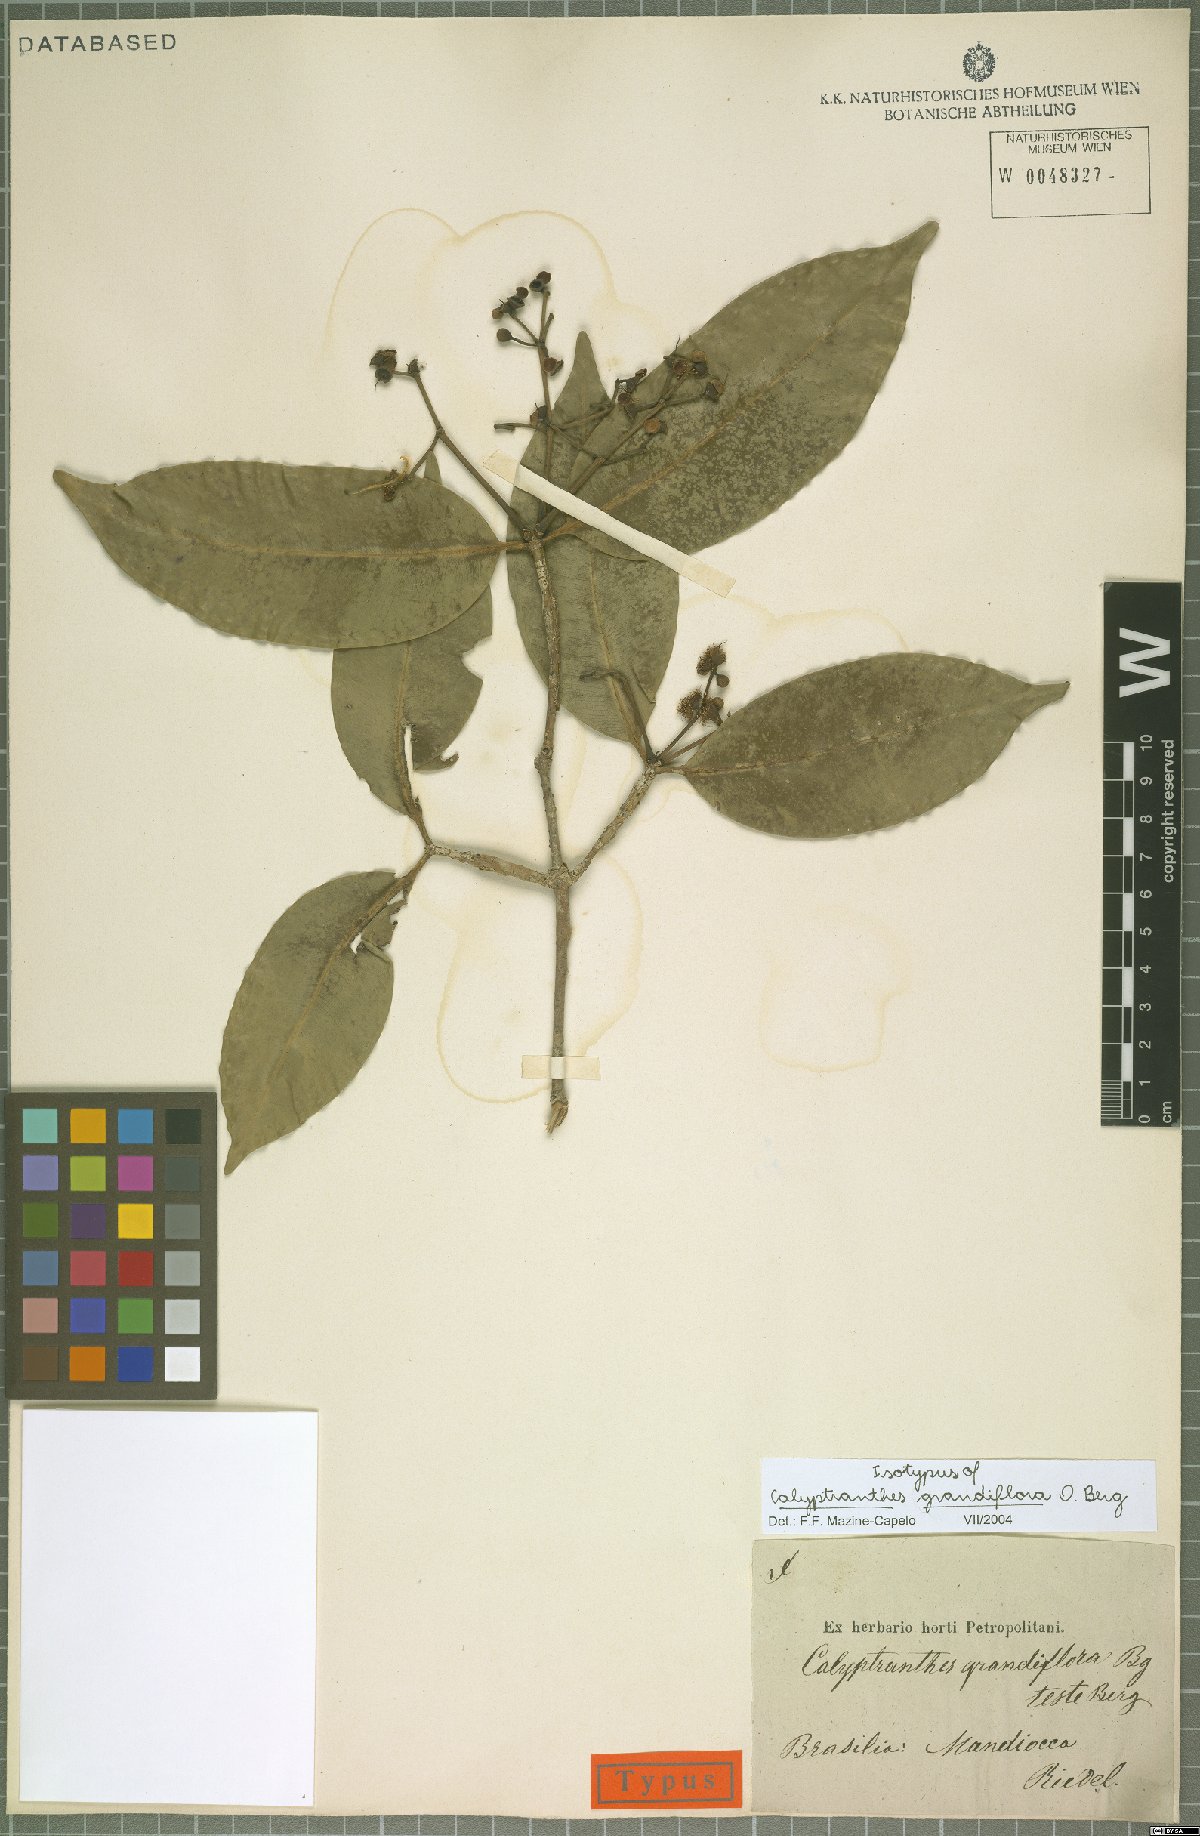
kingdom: Plantae
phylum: Tracheophyta
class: Magnoliopsida
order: Myrtales
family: Myrtaceae
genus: Calyptranthes
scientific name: Calyptranthes grandiflora
